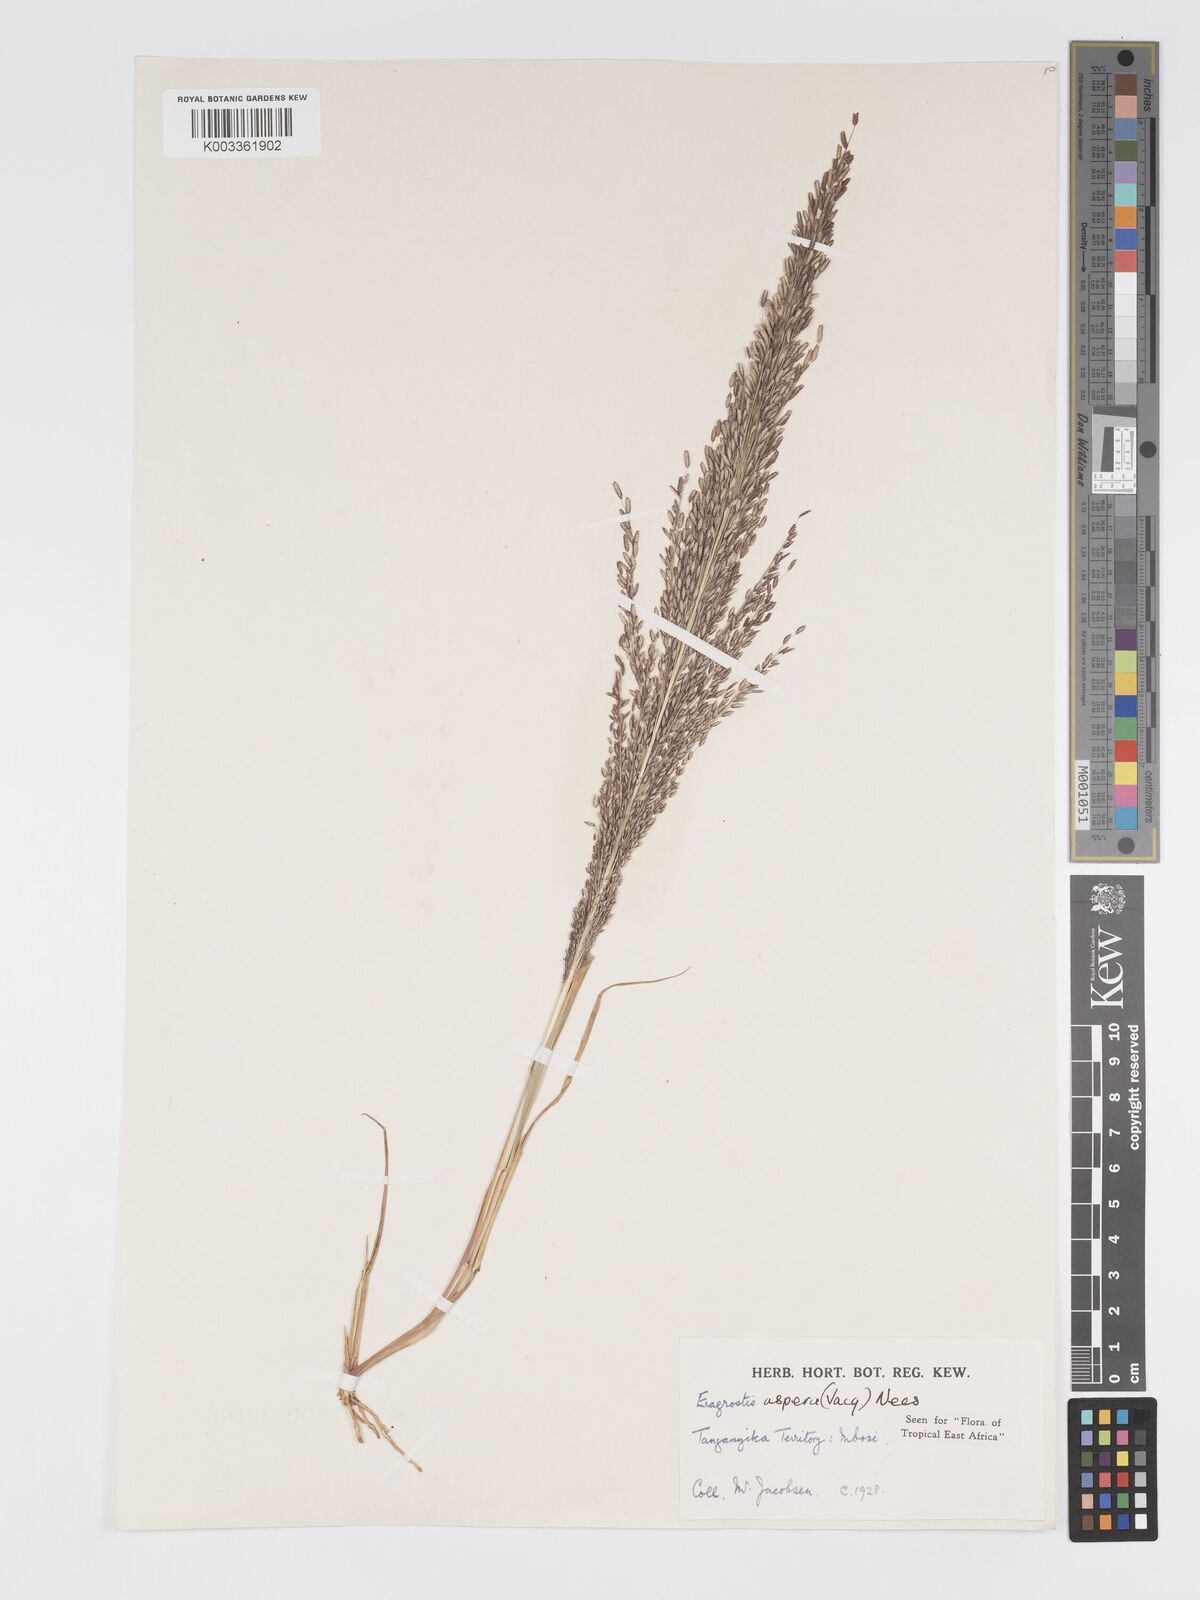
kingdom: Plantae
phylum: Tracheophyta
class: Liliopsida
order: Poales
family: Poaceae
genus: Eragrostis
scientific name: Eragrostis aspera
